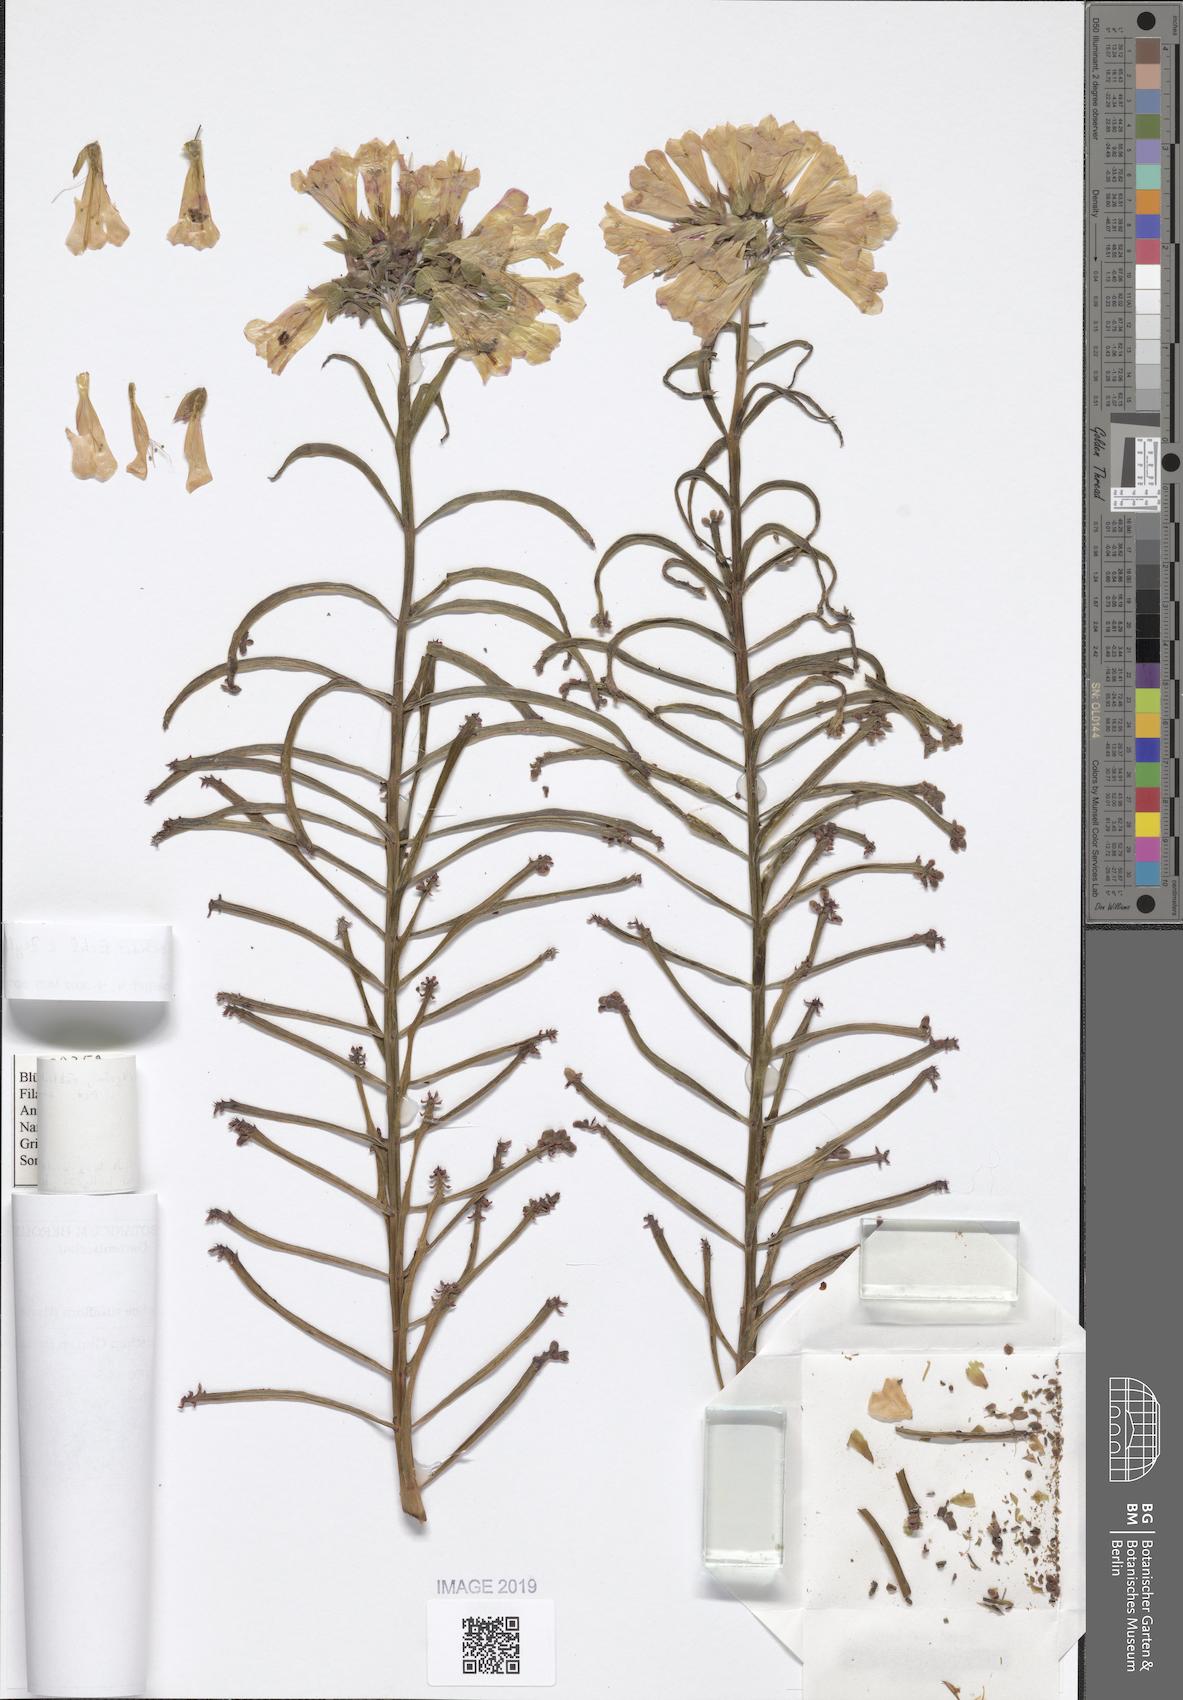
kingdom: Plantae
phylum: Tracheophyta
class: Magnoliopsida
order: Saxifragales
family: Crassulaceae
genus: Kalanchoe
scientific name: Kalanchoe delagoensis
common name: Chandelier plant
